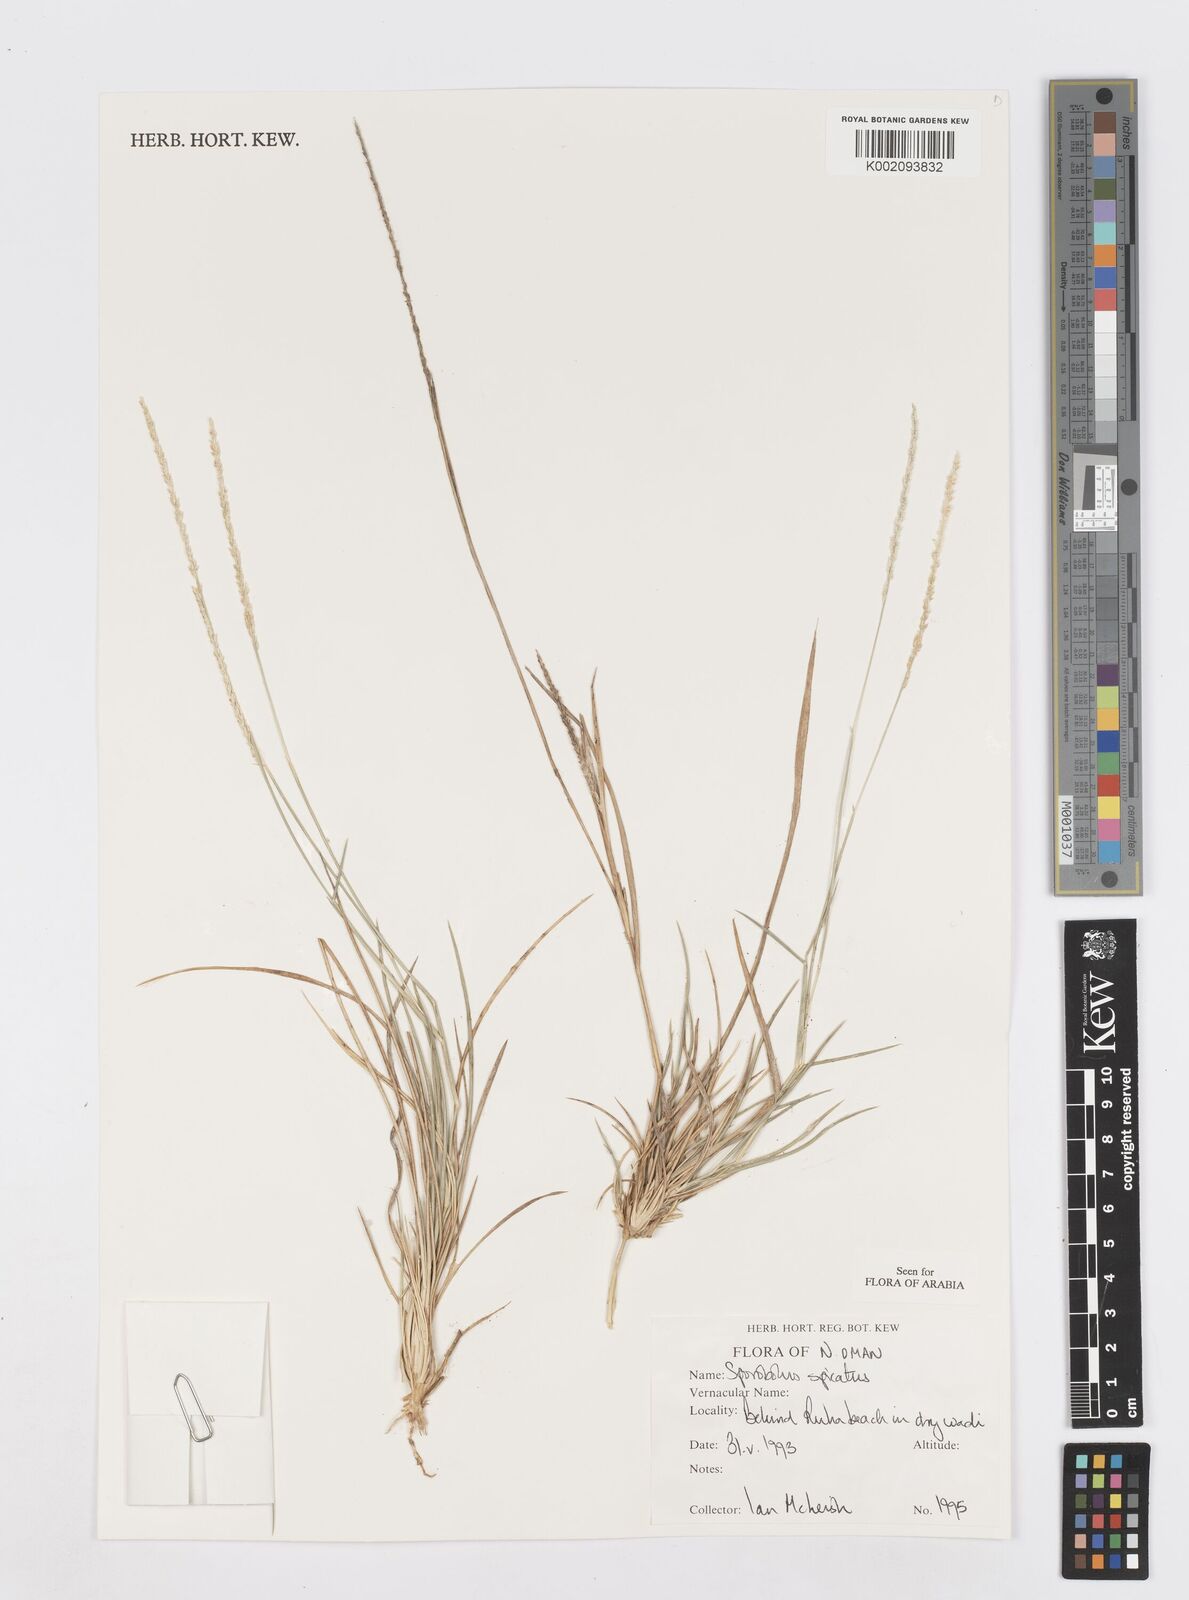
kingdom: Plantae
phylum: Tracheophyta
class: Liliopsida
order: Poales
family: Poaceae
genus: Sporobolus
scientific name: Sporobolus spicatus
